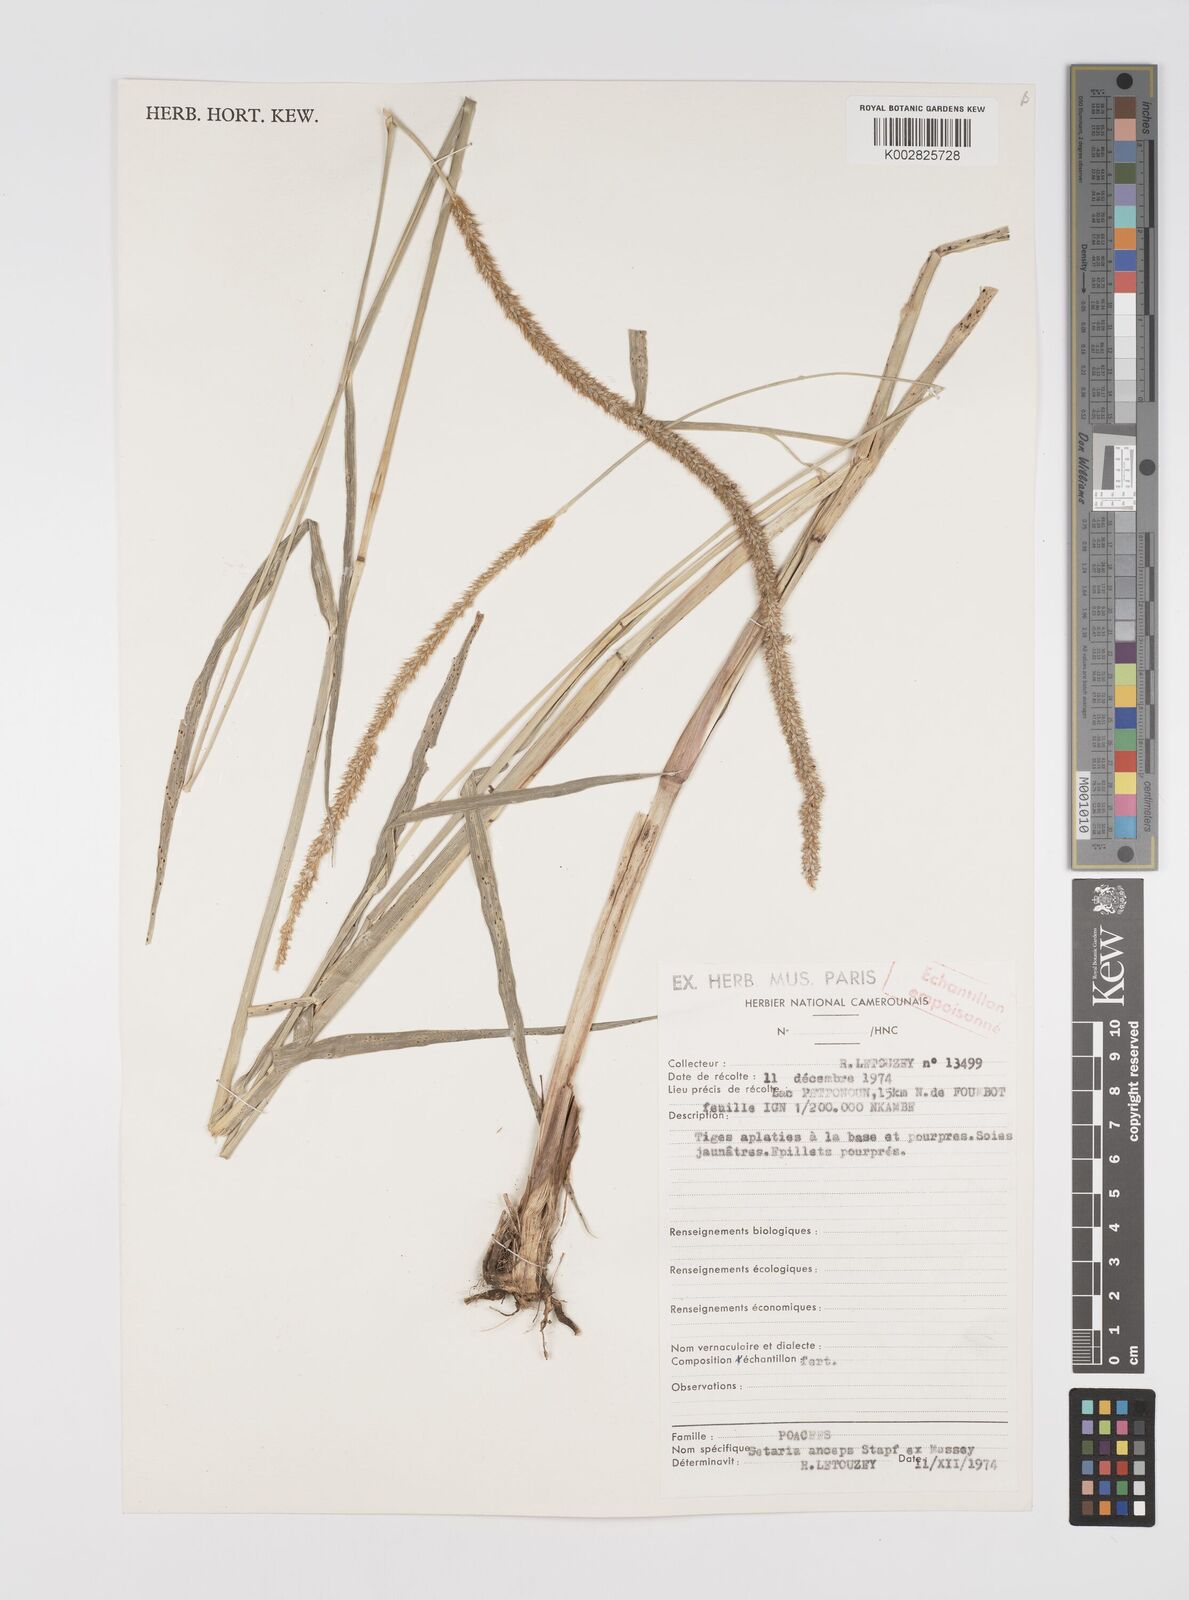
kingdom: Plantae
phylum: Tracheophyta
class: Liliopsida
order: Poales
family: Poaceae
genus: Setaria
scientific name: Setaria sphacelata
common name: African bristlegrass
